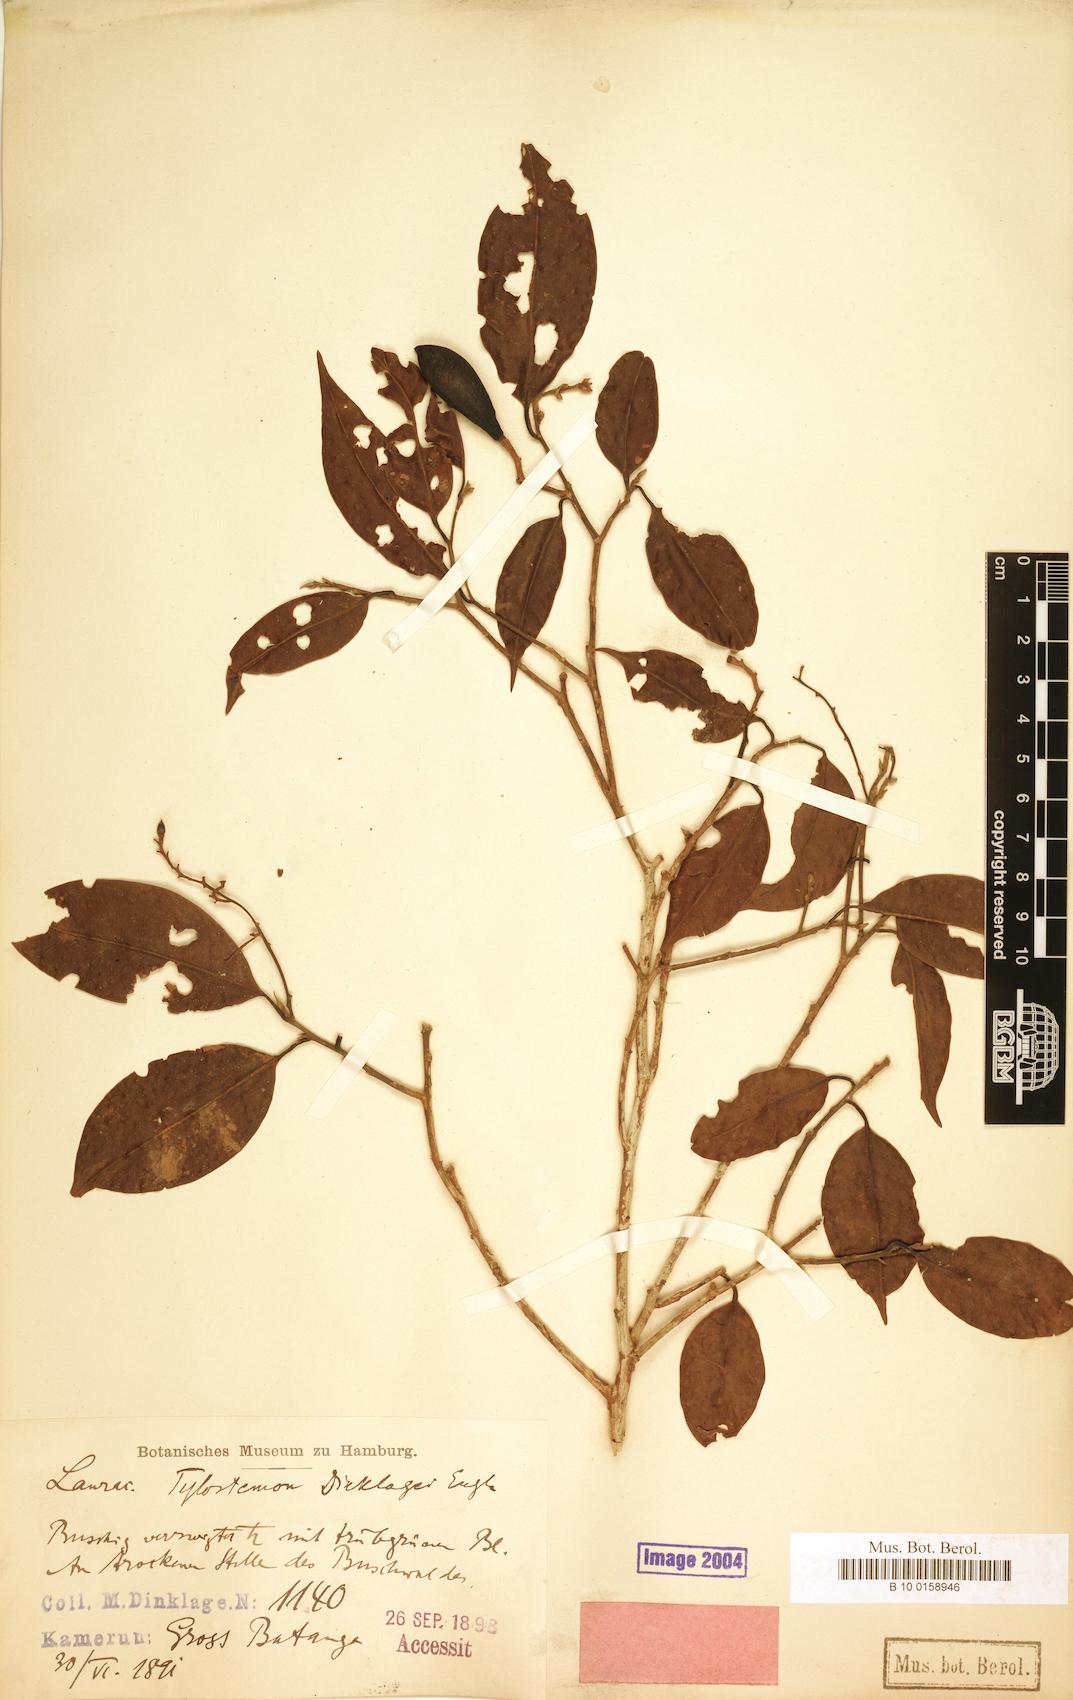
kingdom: Plantae
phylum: Tracheophyta
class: Magnoliopsida
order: Laurales
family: Lauraceae
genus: Beilschmiedia
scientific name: Beilschmiedia dinklagei
